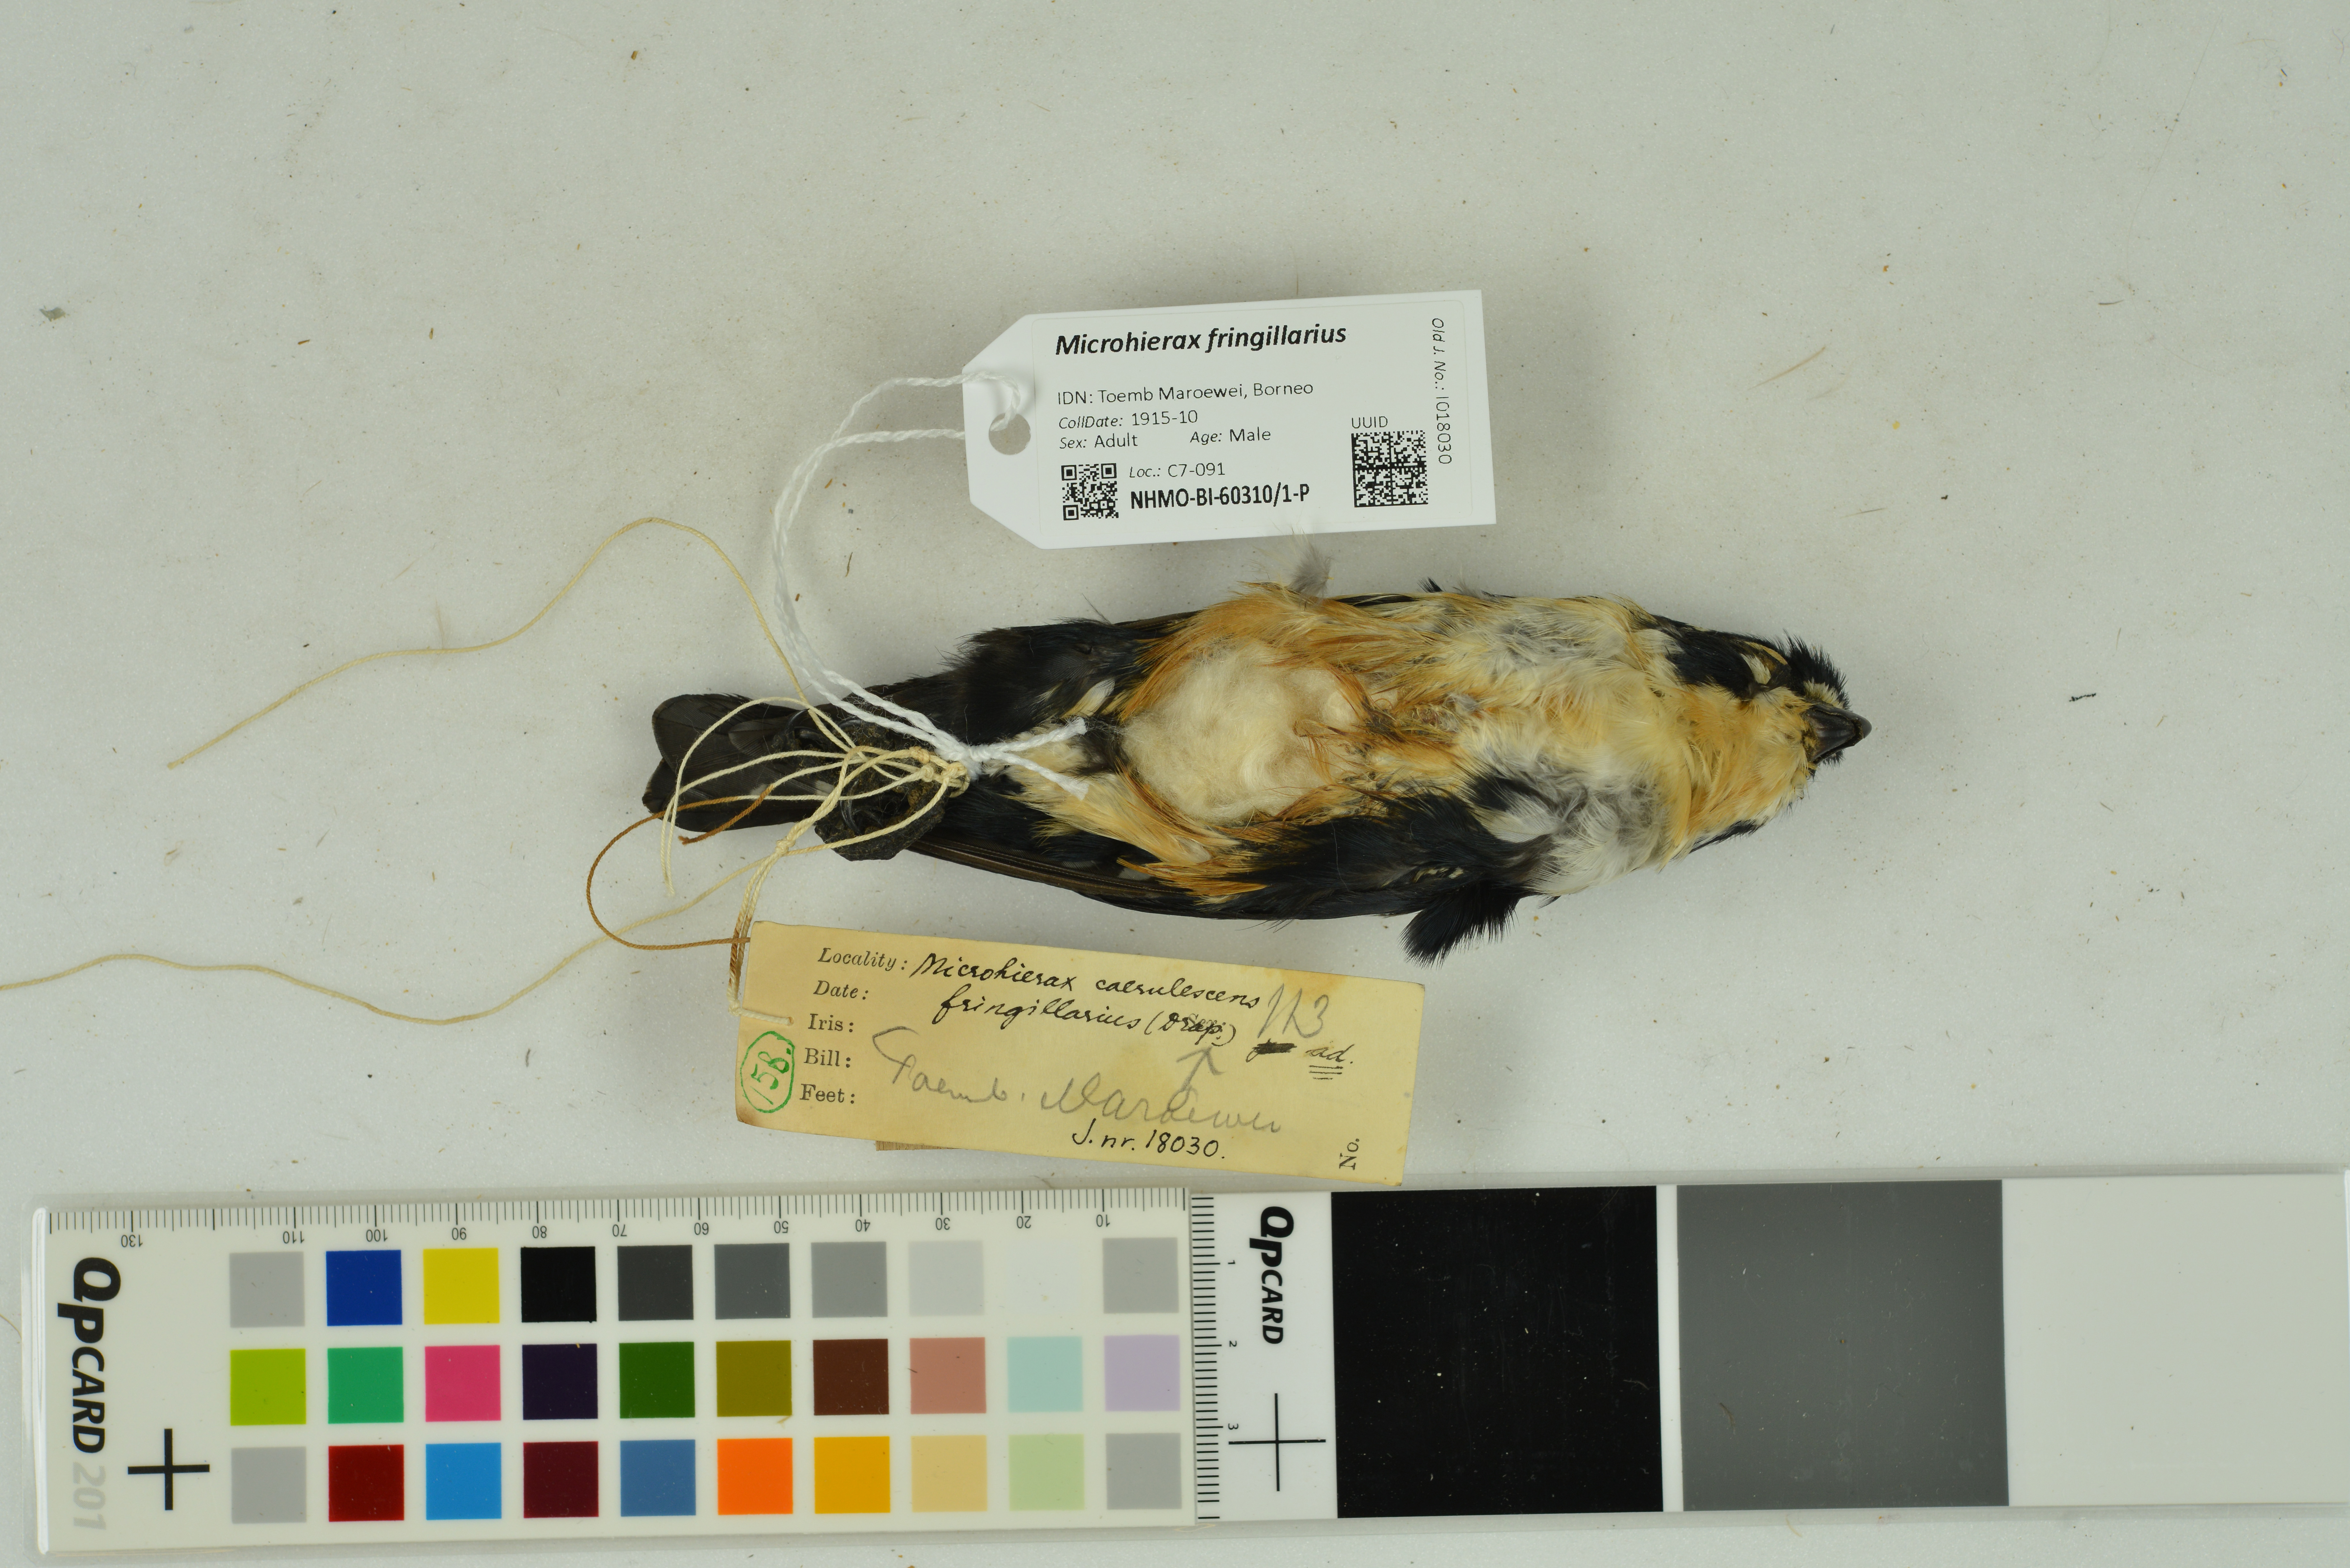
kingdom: Animalia
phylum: Chordata
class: Aves
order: Falconiformes
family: Falconidae
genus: Microhierax
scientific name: Microhierax fringillarius
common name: Black-thighed falconet
